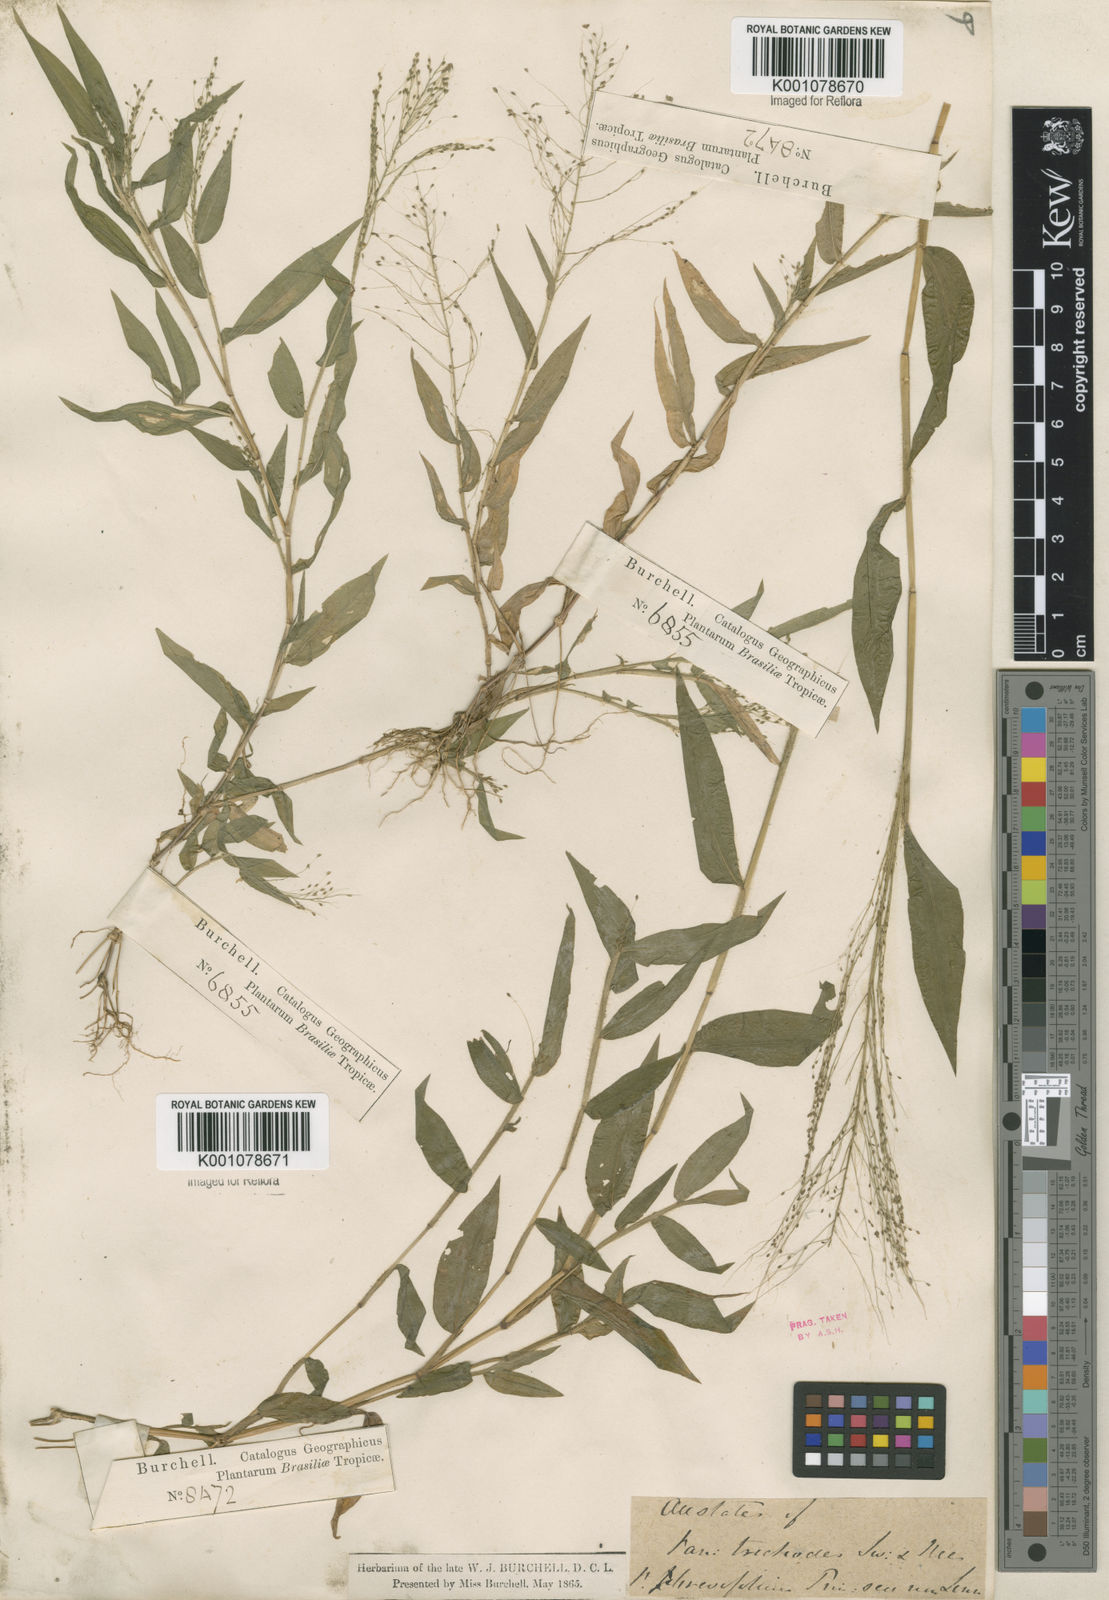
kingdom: Plantae
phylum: Tracheophyta
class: Liliopsida
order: Poales
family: Poaceae
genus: Panicum
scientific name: Panicum trichoides
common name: Tickle grass
